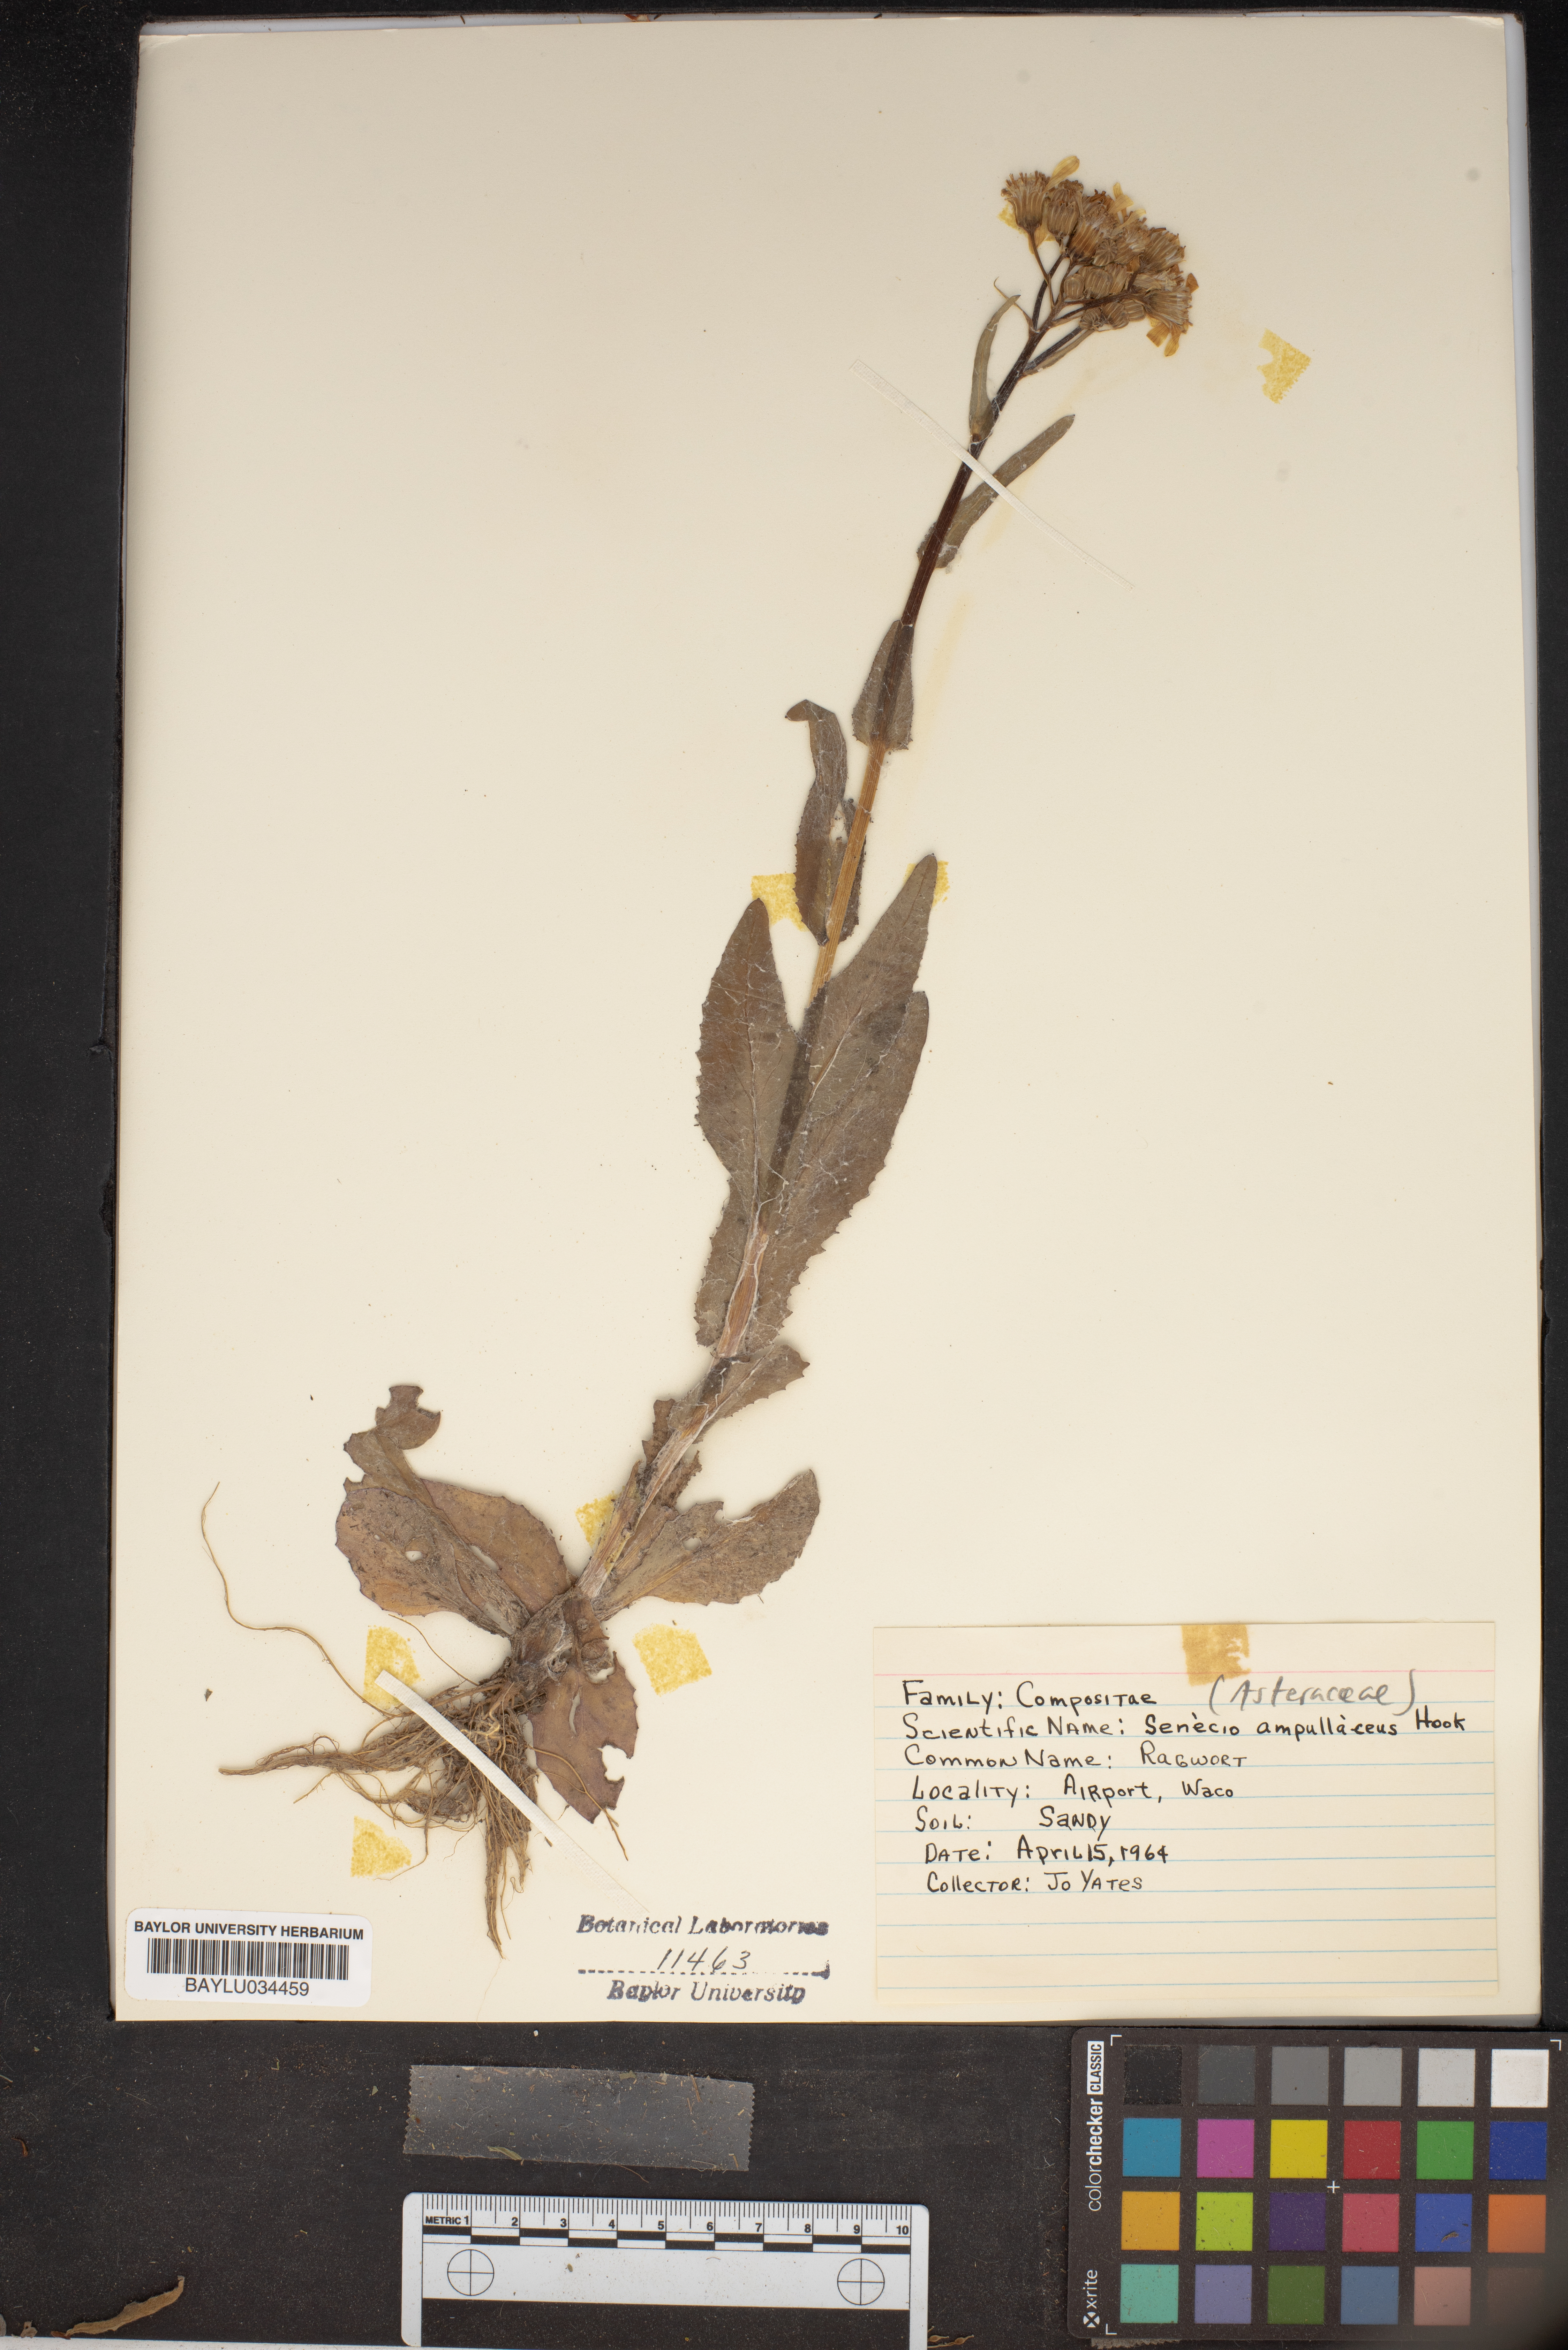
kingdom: Plantae
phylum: Tracheophyta
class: Magnoliopsida
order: Asterales
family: Asteraceae
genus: Senecio
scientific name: Senecio ampullaceus
